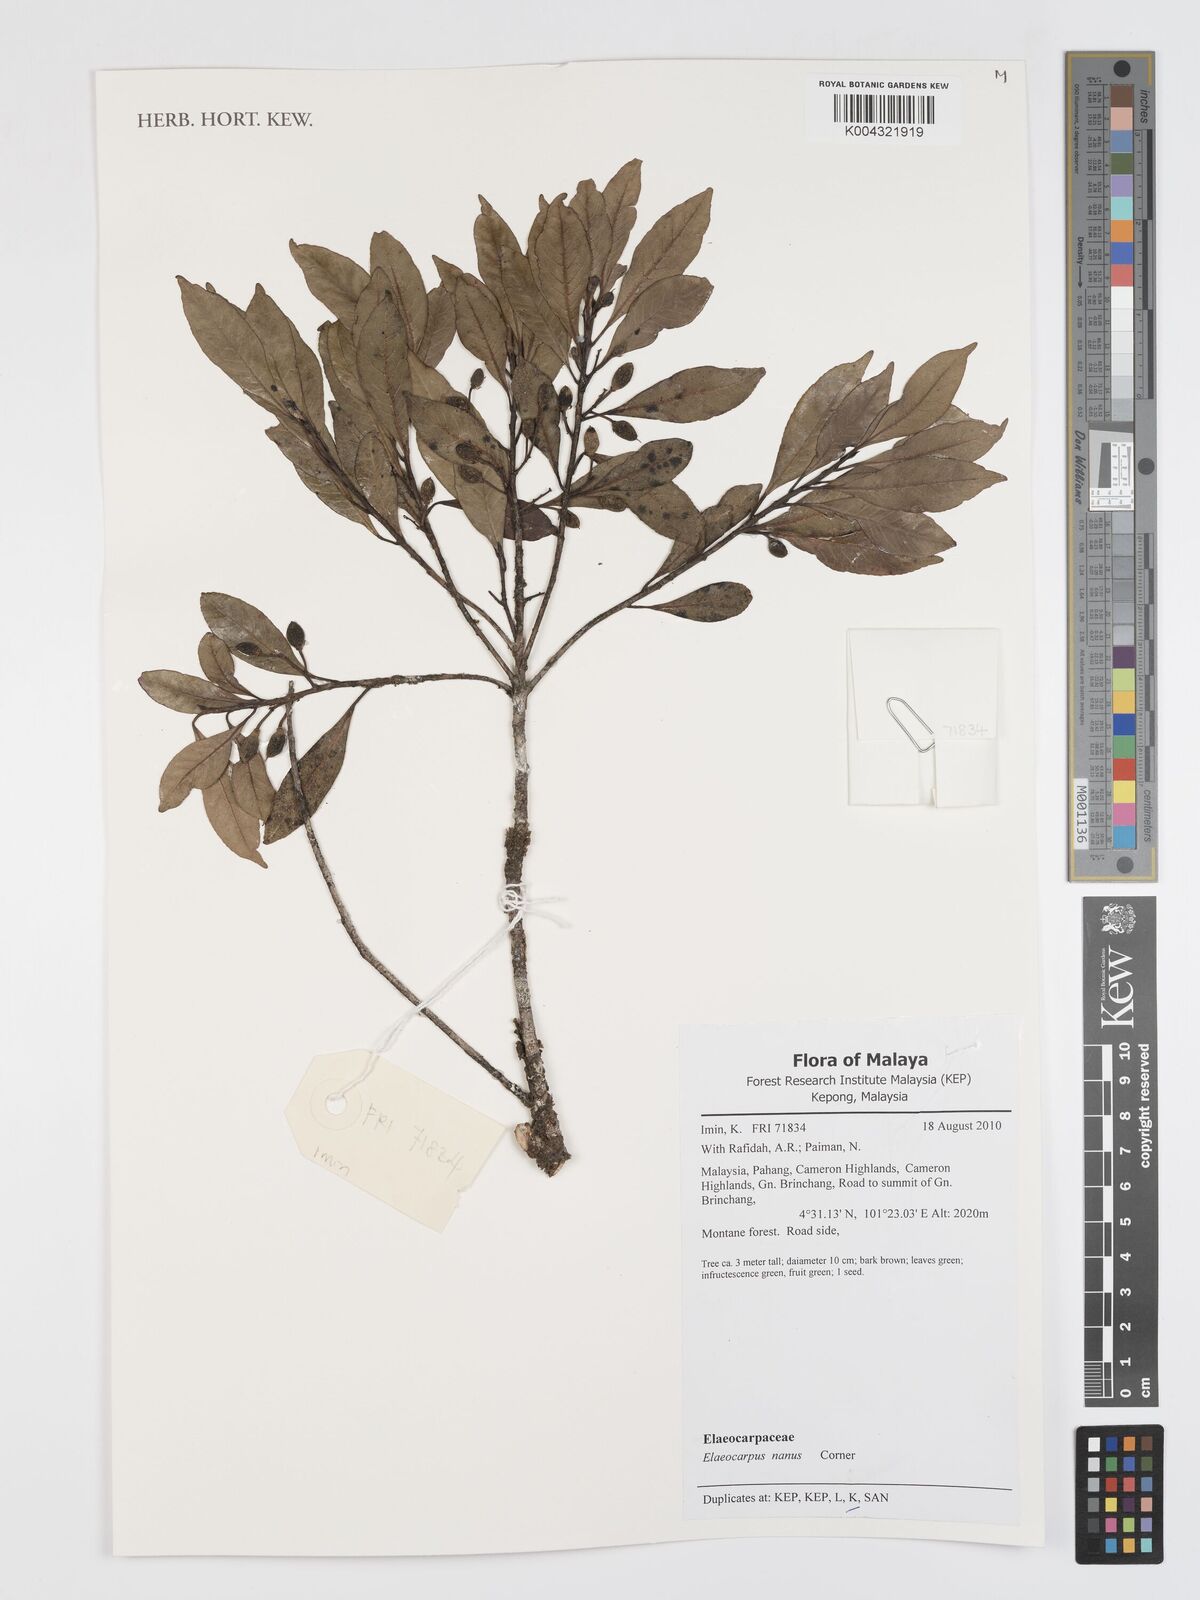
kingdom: Plantae
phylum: Tracheophyta
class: Magnoliopsida
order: Oxalidales
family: Elaeocarpaceae
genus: Elaeocarpus
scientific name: Elaeocarpus nanus
